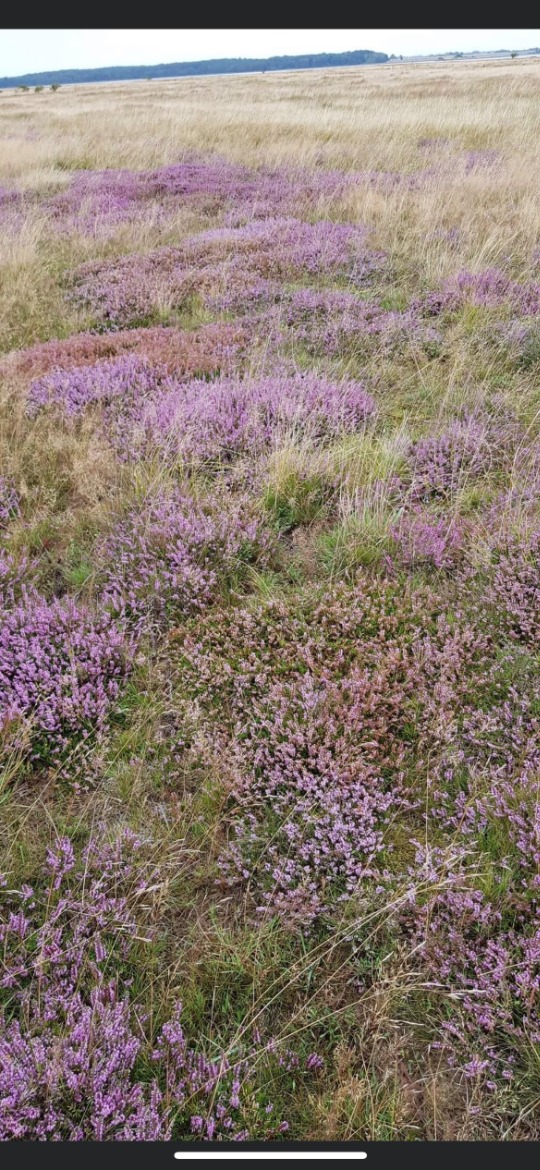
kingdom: Plantae
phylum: Tracheophyta
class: Magnoliopsida
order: Ericales
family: Ericaceae
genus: Calluna
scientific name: Calluna vulgaris
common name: Hedelyng
